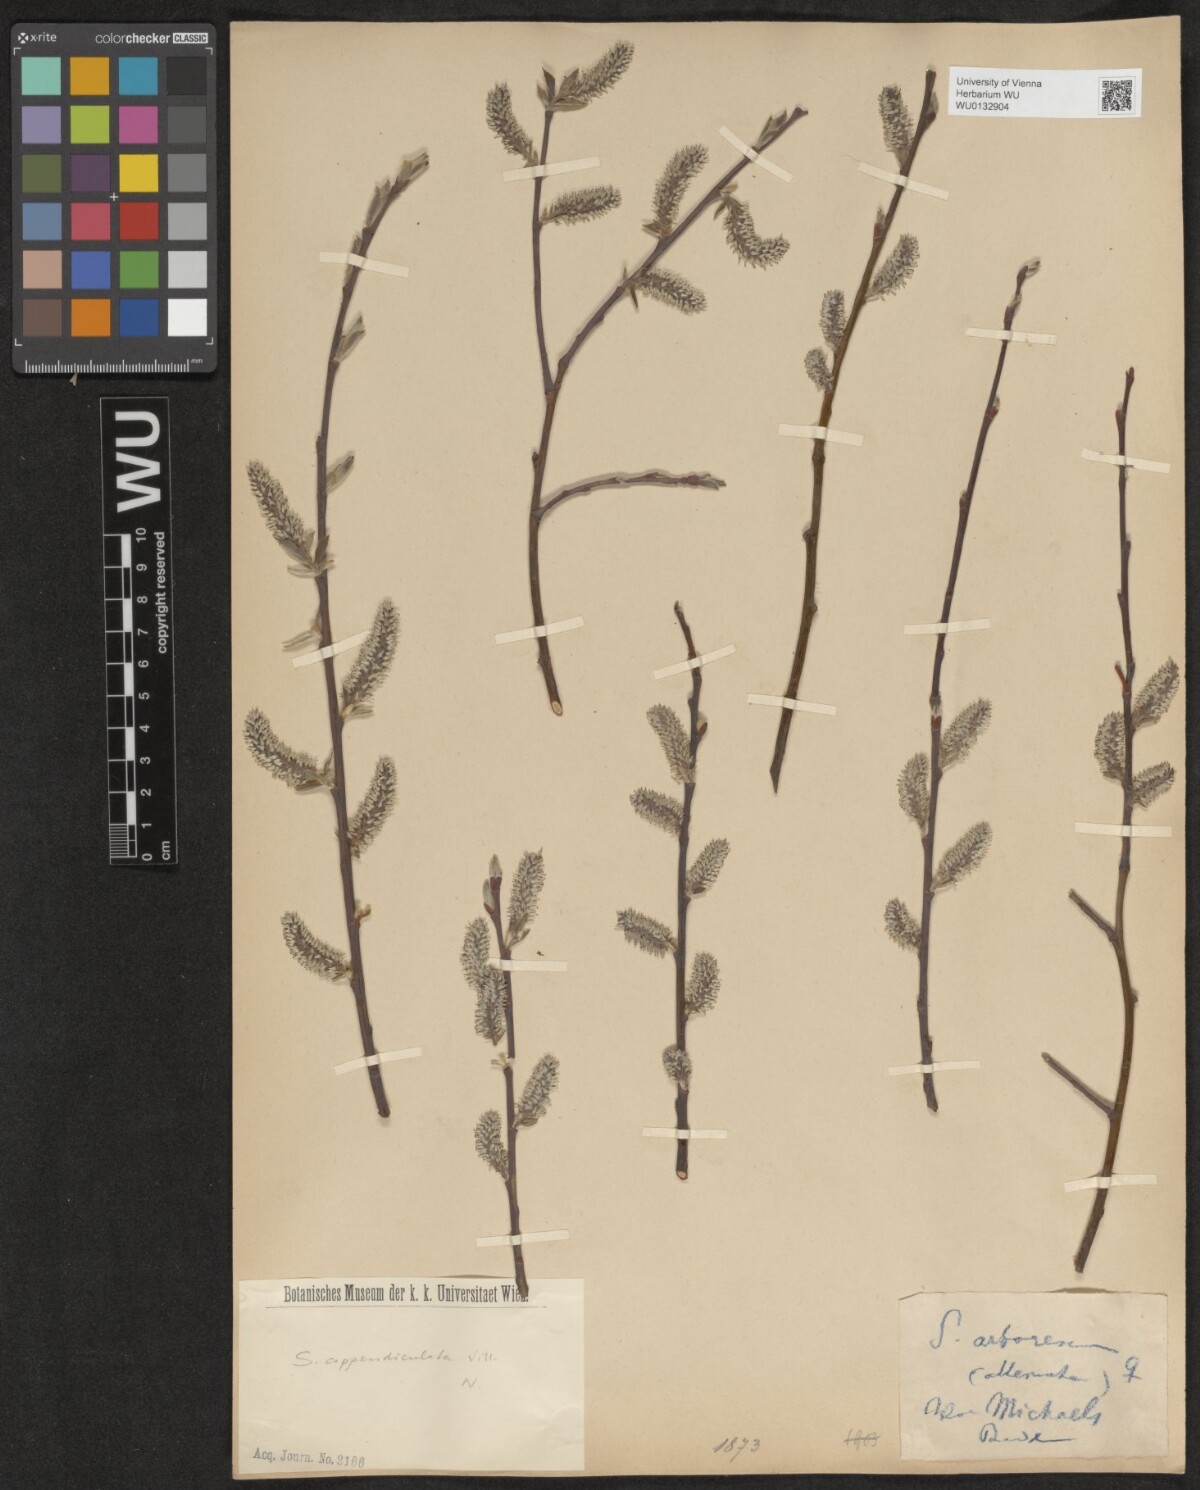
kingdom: Plantae
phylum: Tracheophyta
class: Magnoliopsida
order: Malpighiales
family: Salicaceae
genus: Salix
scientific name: Salix purpurea
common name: Purple willow
